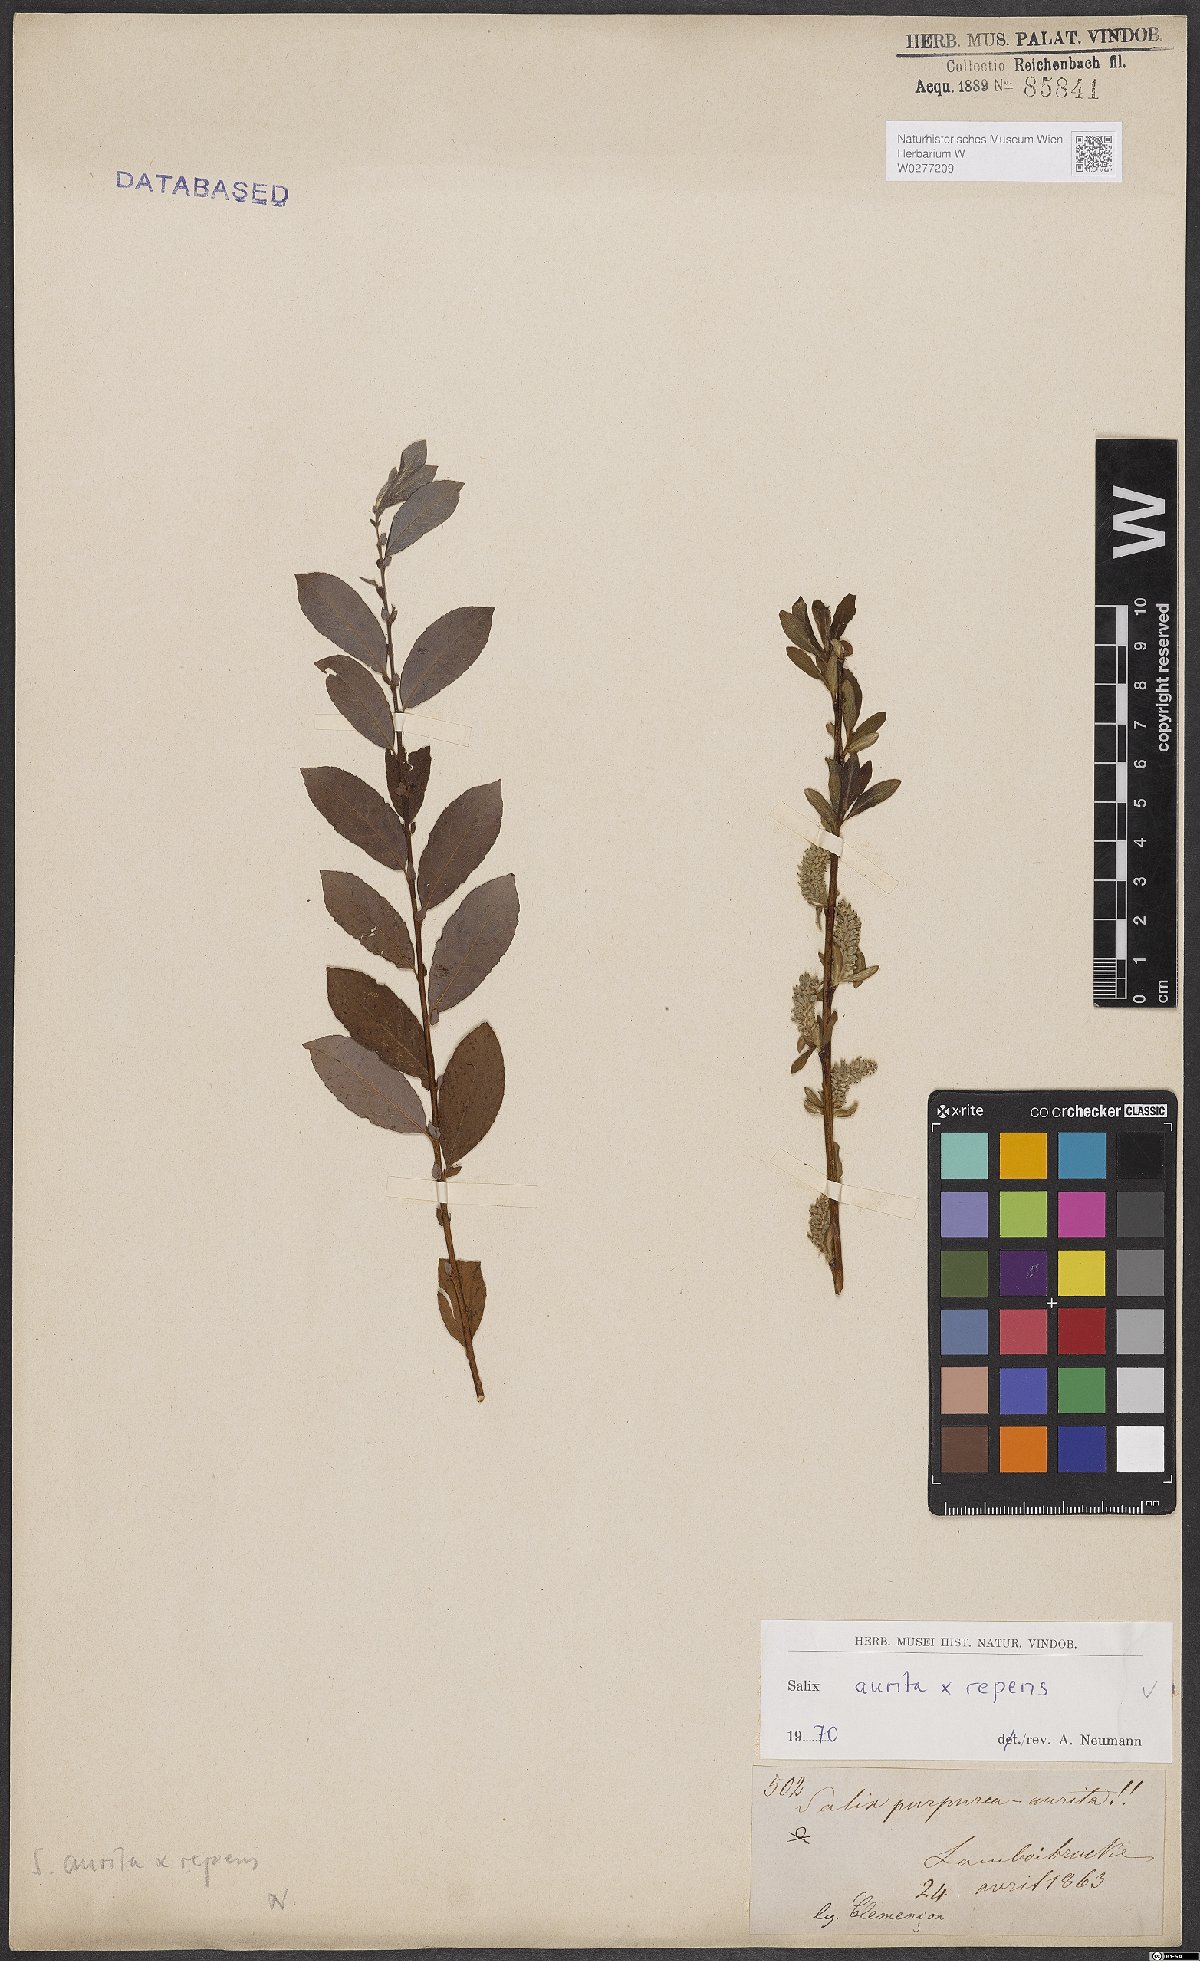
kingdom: Plantae
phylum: Tracheophyta
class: Magnoliopsida
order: Malpighiales
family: Salicaceae
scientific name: Salicaceae
